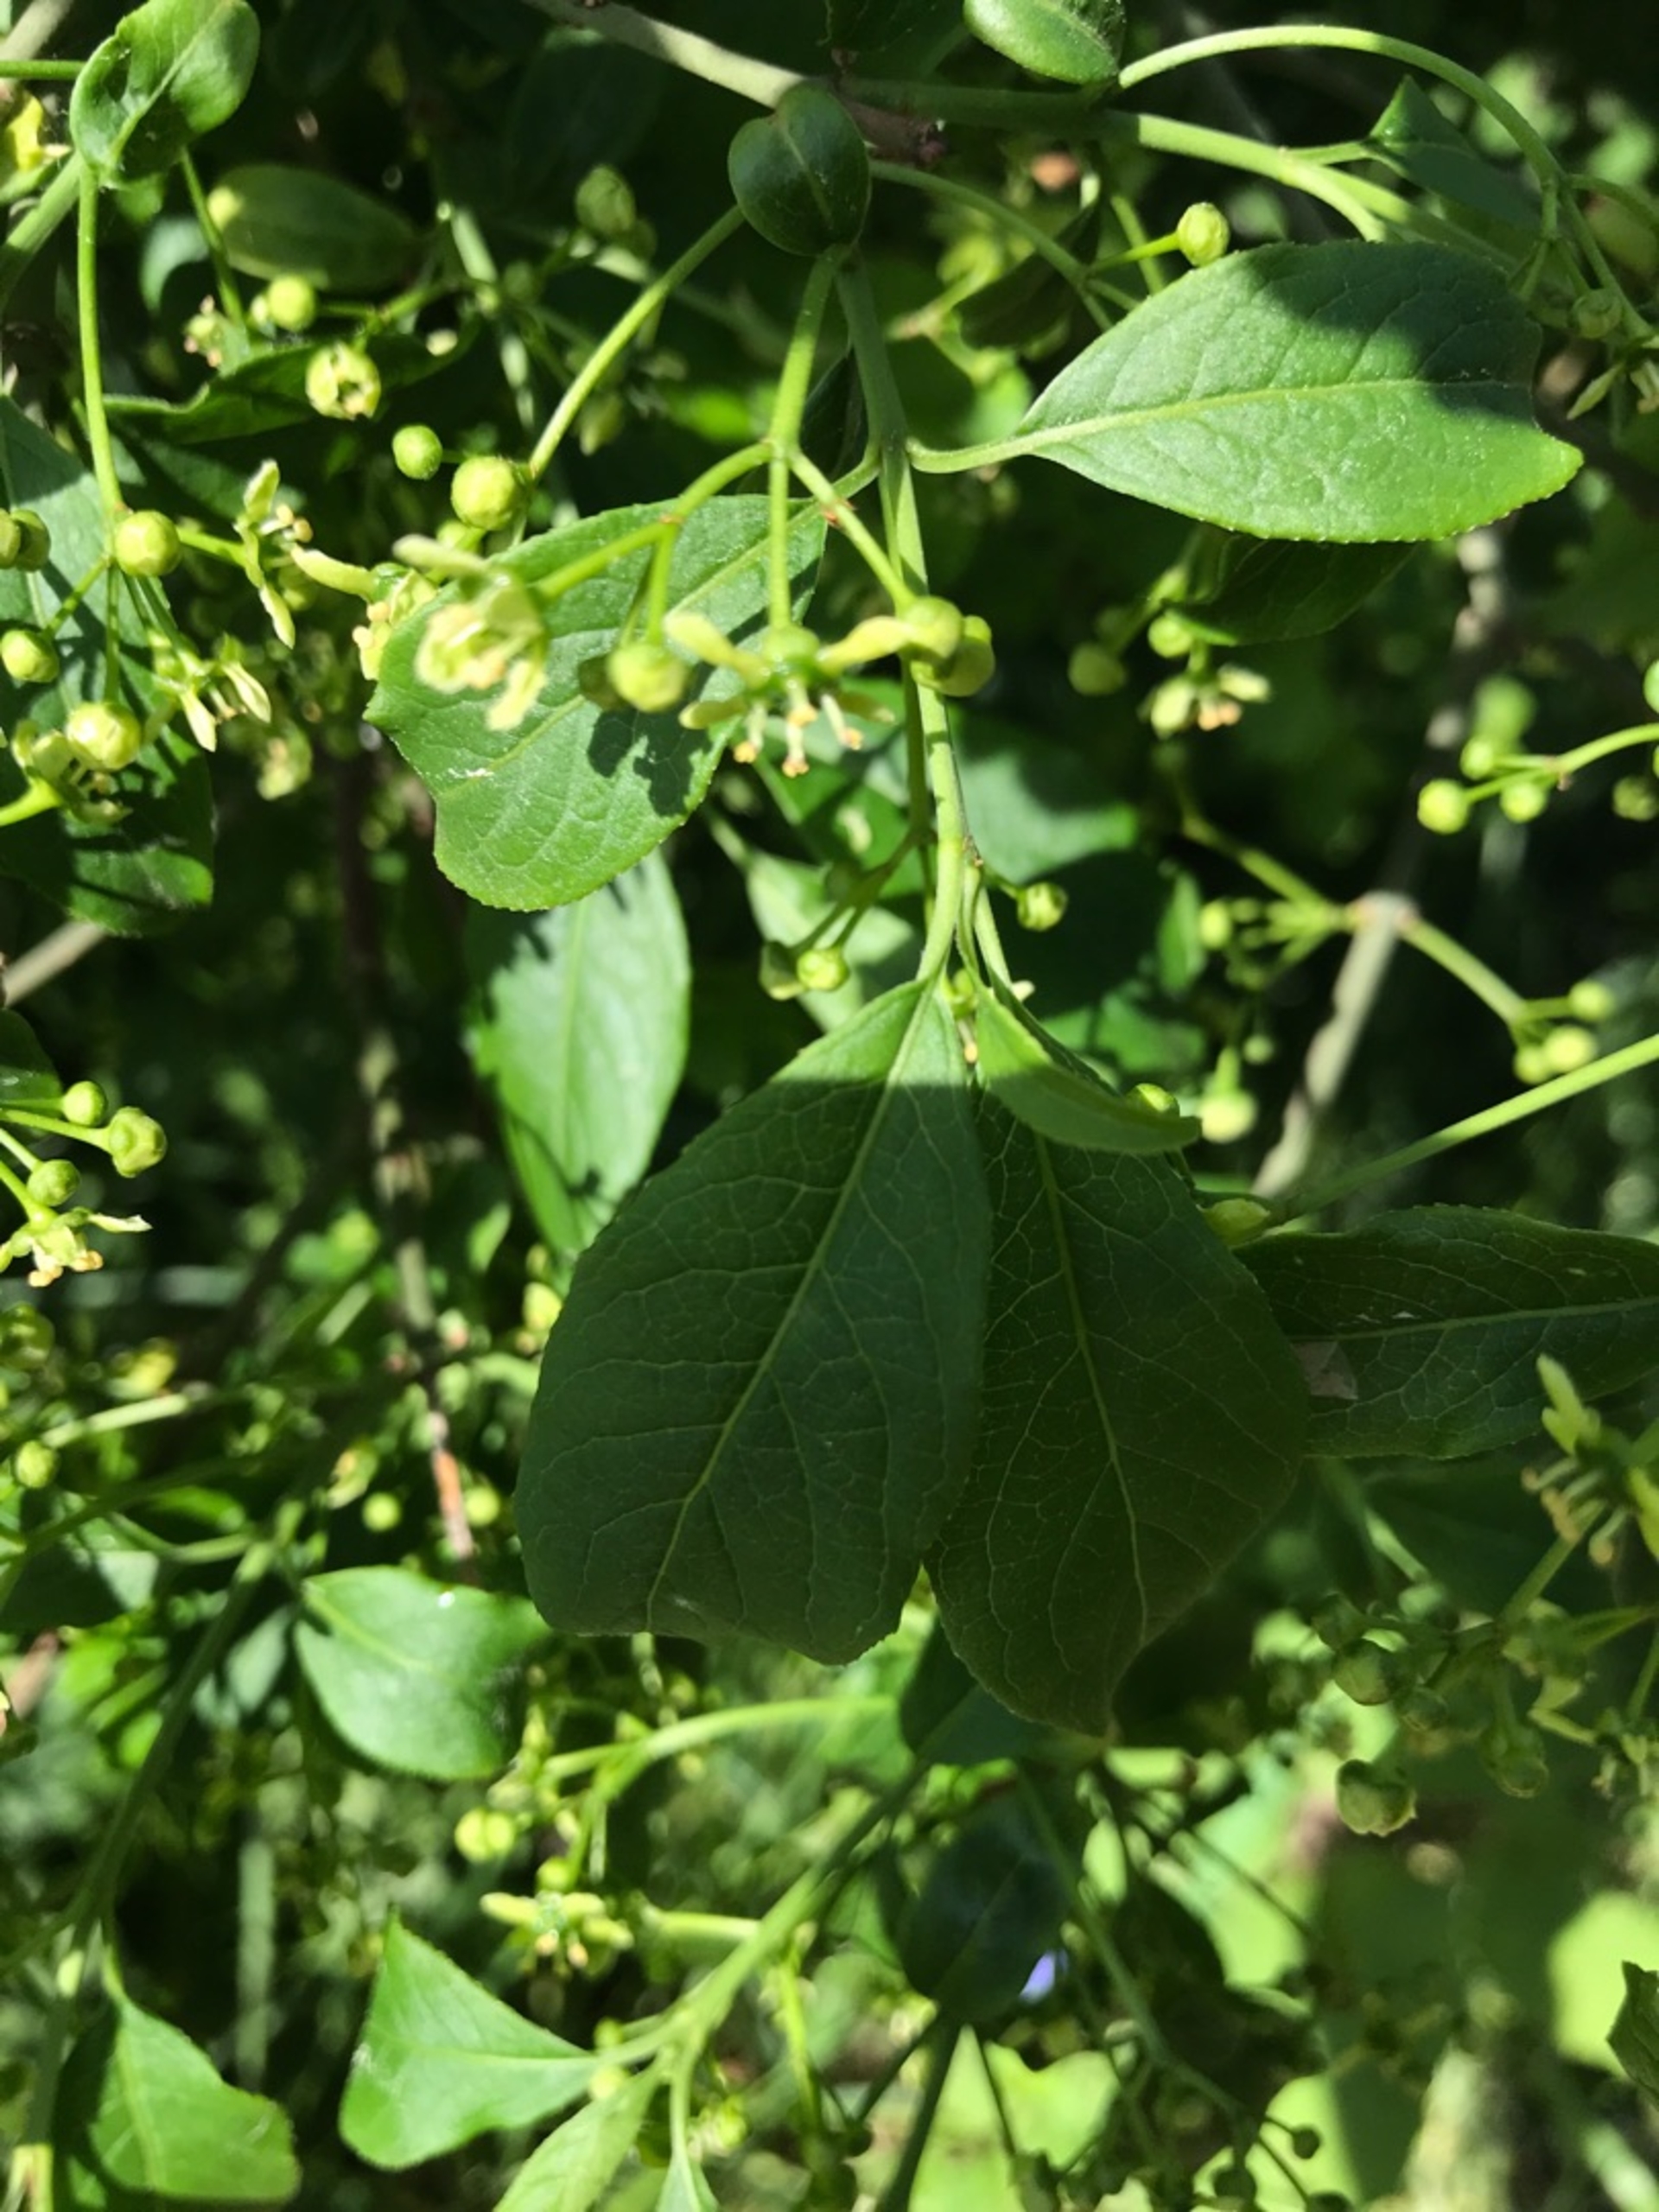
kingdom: Plantae
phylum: Tracheophyta
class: Magnoliopsida
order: Celastrales
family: Celastraceae
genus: Euonymus
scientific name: Euonymus europaeus
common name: Benved
